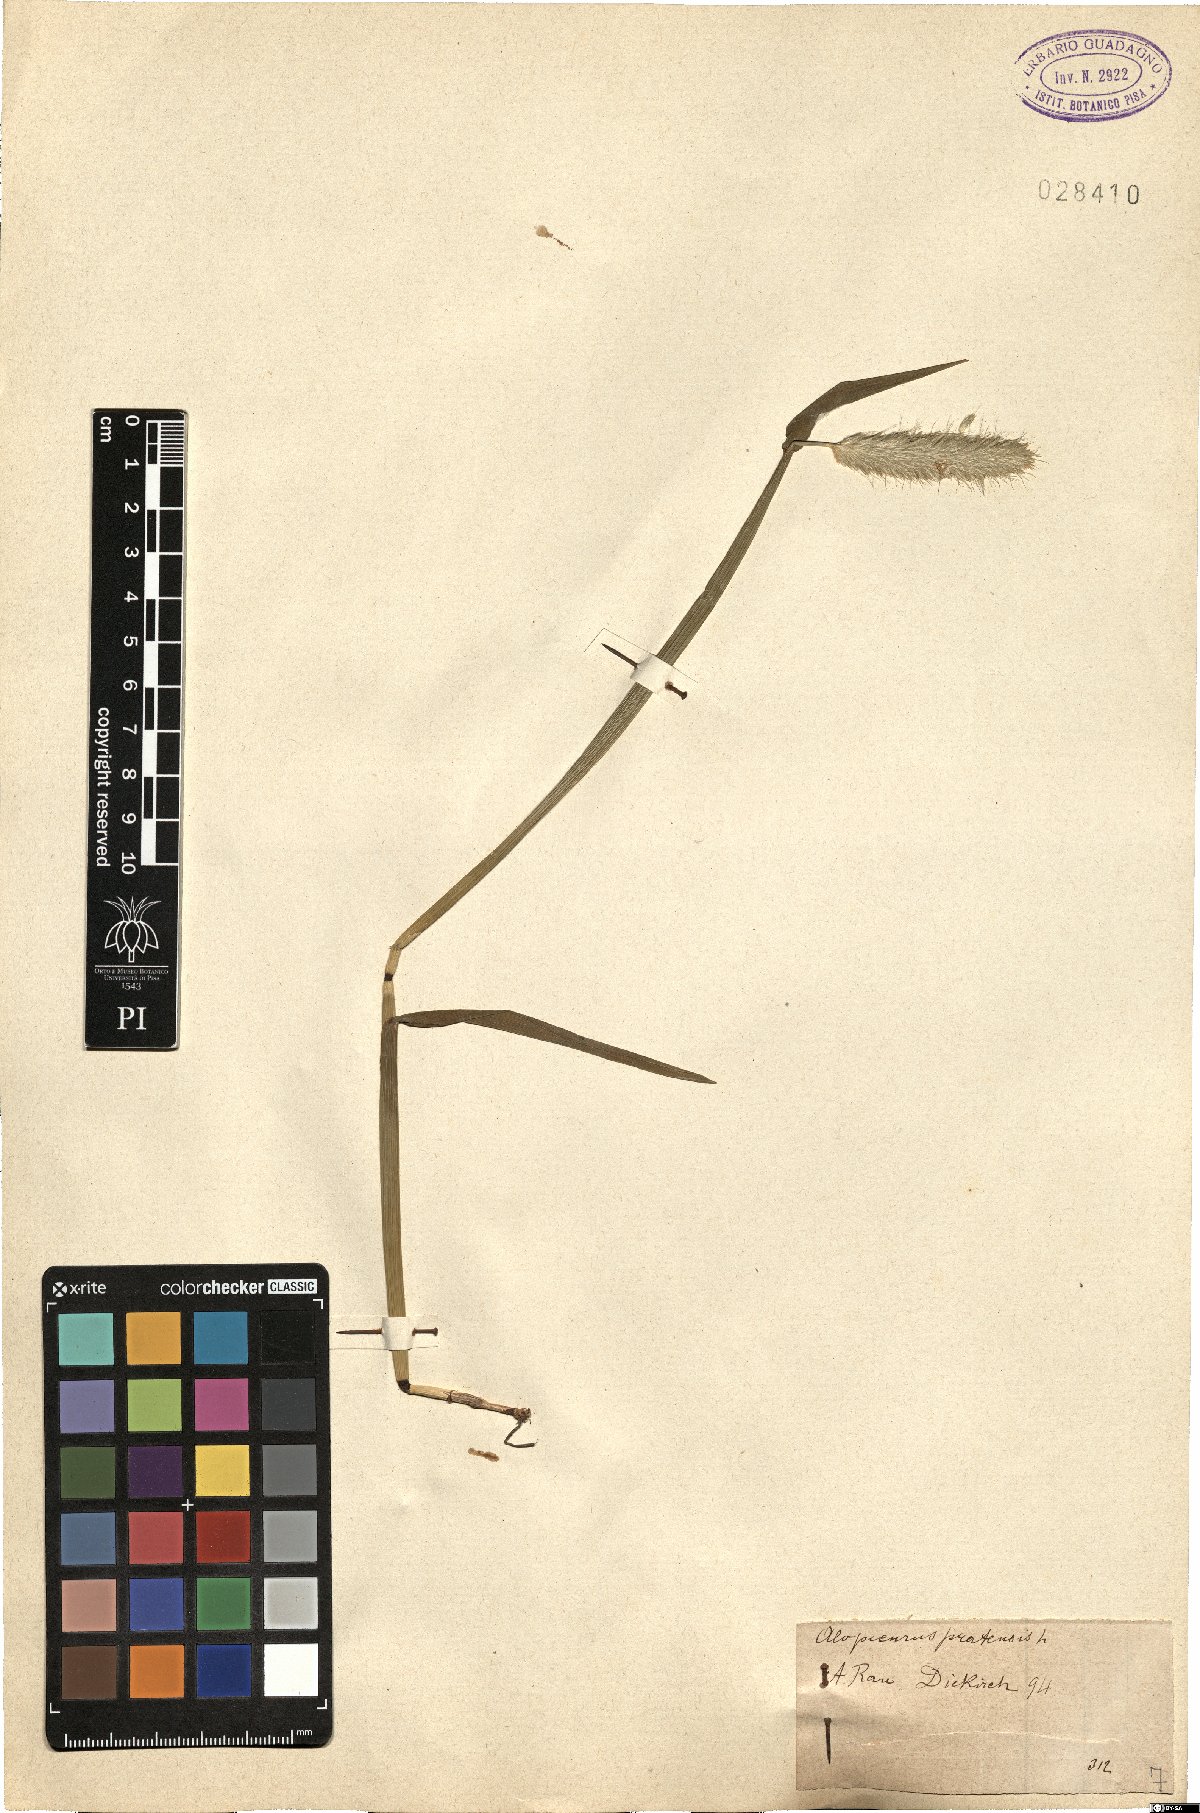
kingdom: Plantae
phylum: Tracheophyta
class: Liliopsida
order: Poales
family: Poaceae
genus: Alopecurus
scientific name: Alopecurus pratensis
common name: Meadow foxtail
